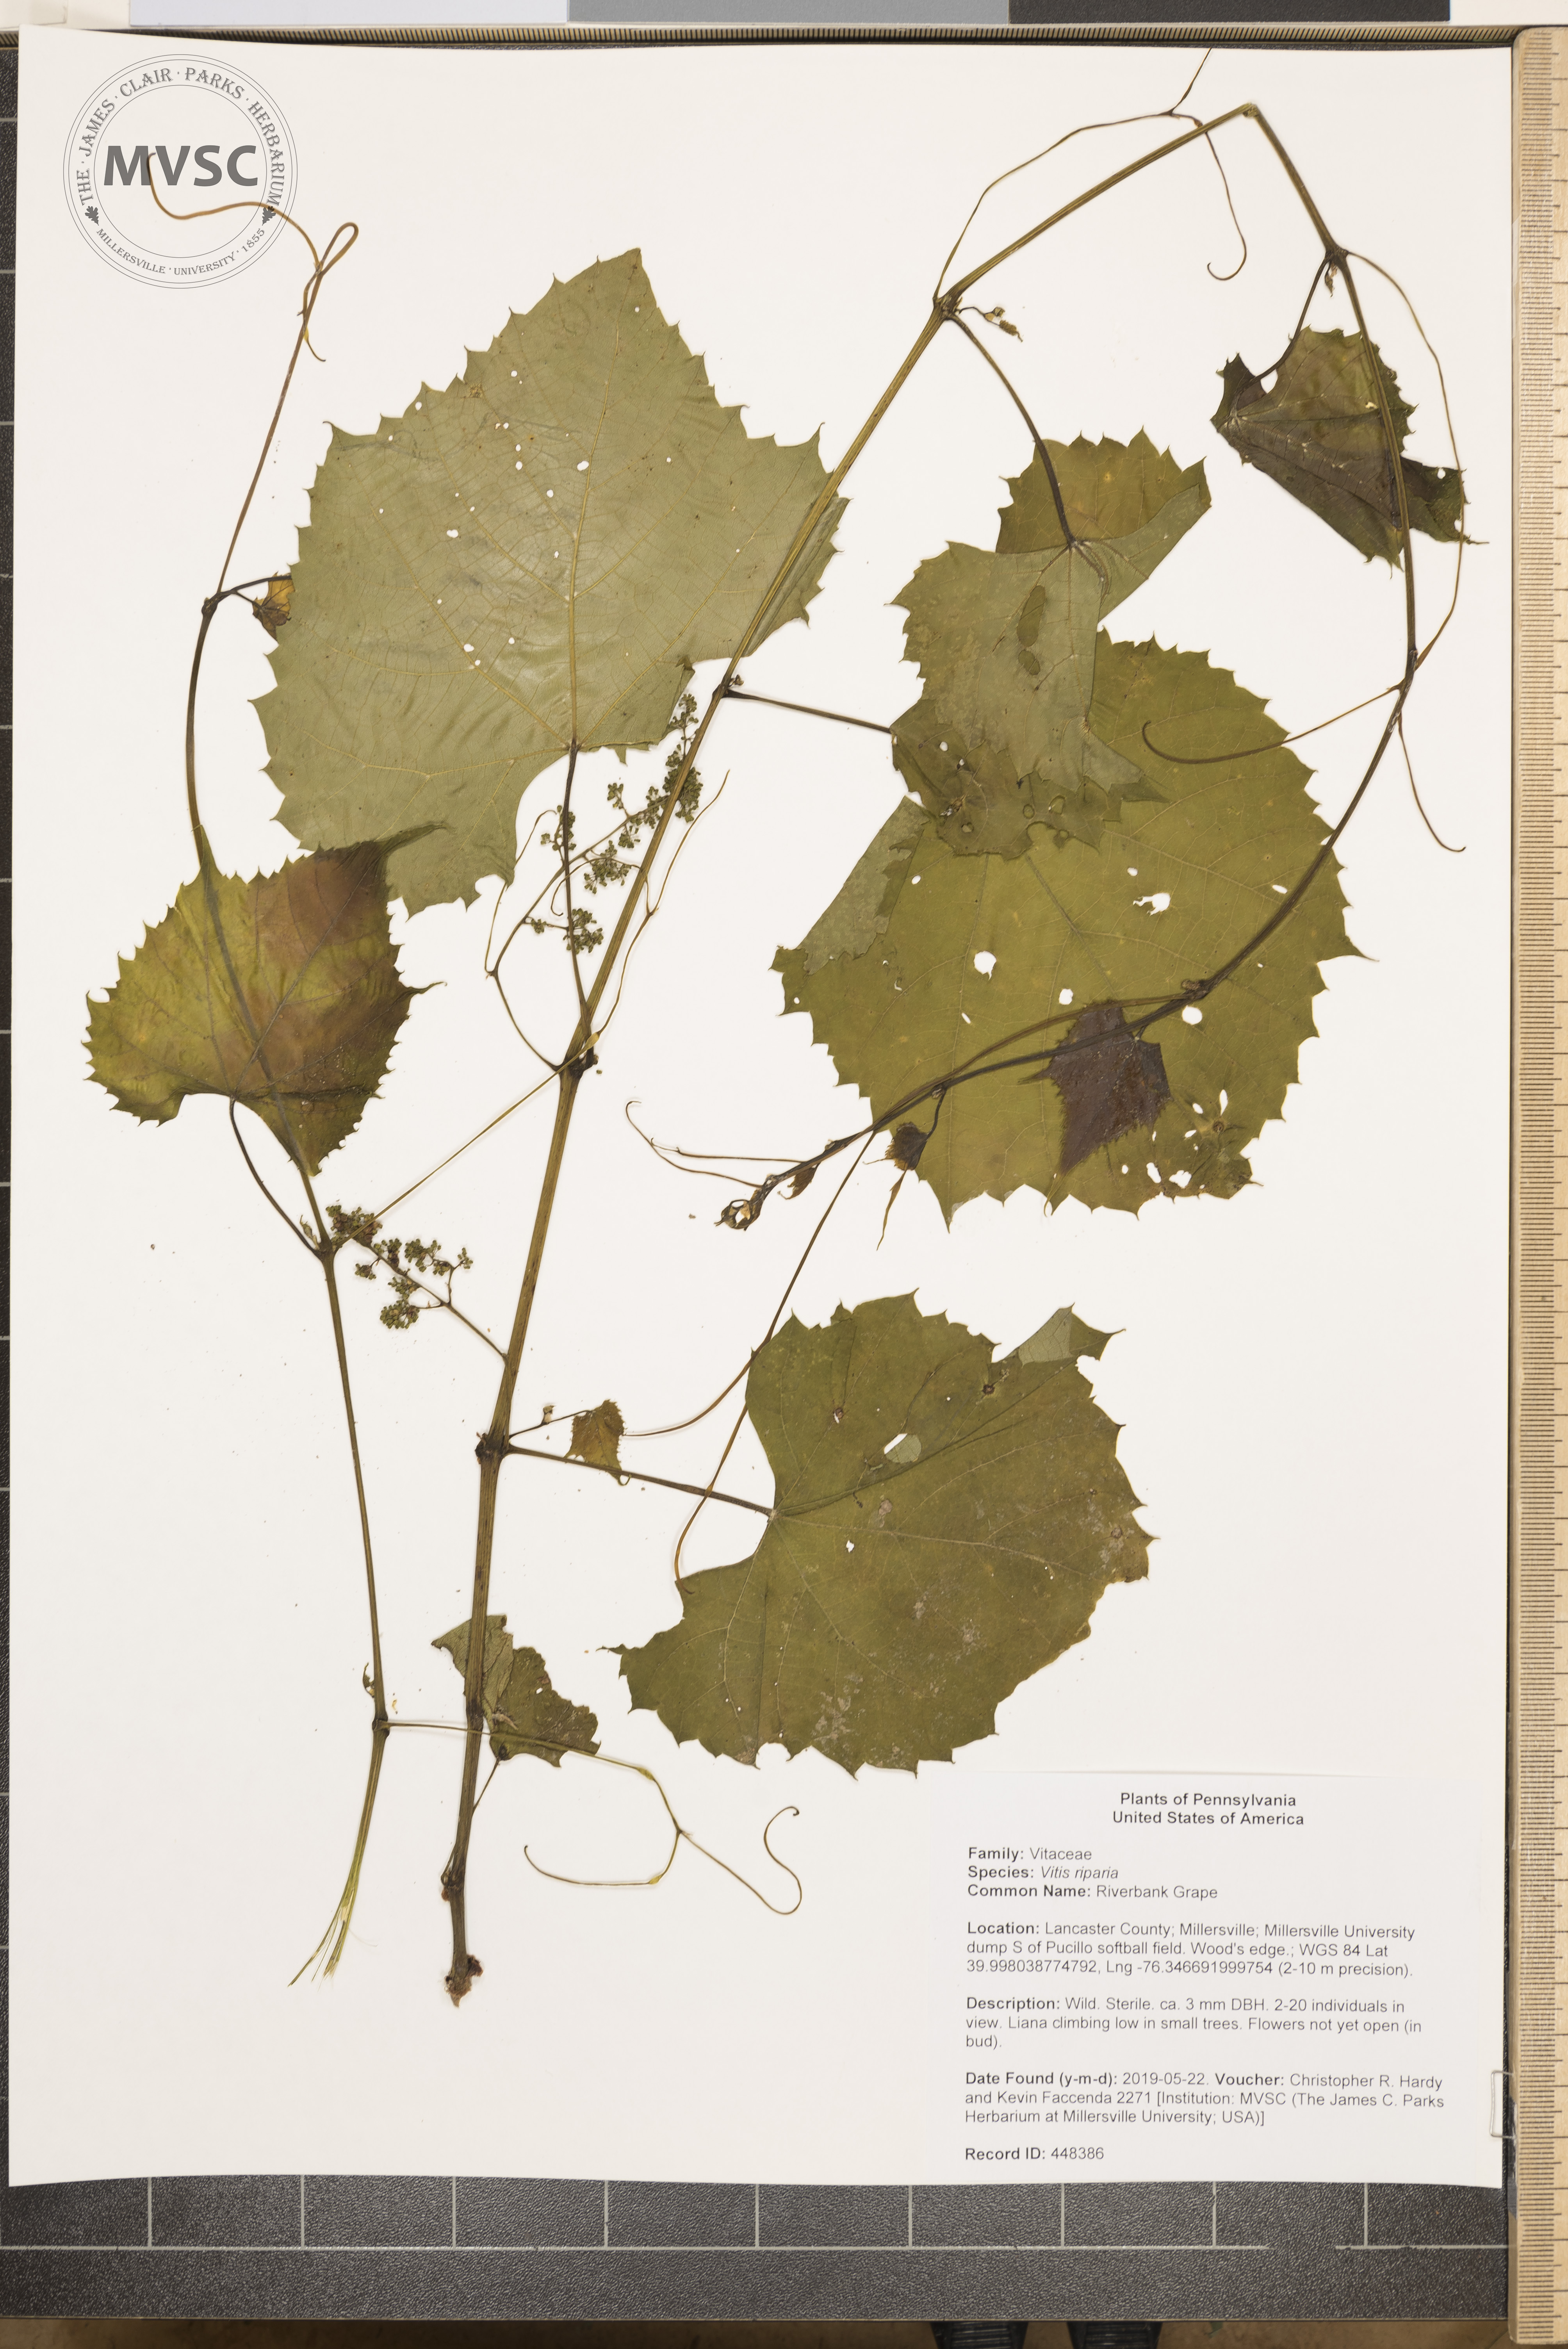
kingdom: Plantae
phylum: Tracheophyta
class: Magnoliopsida
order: Vitales
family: Vitaceae
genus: Vitis
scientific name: Vitis riparia
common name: Riverbank Grape
